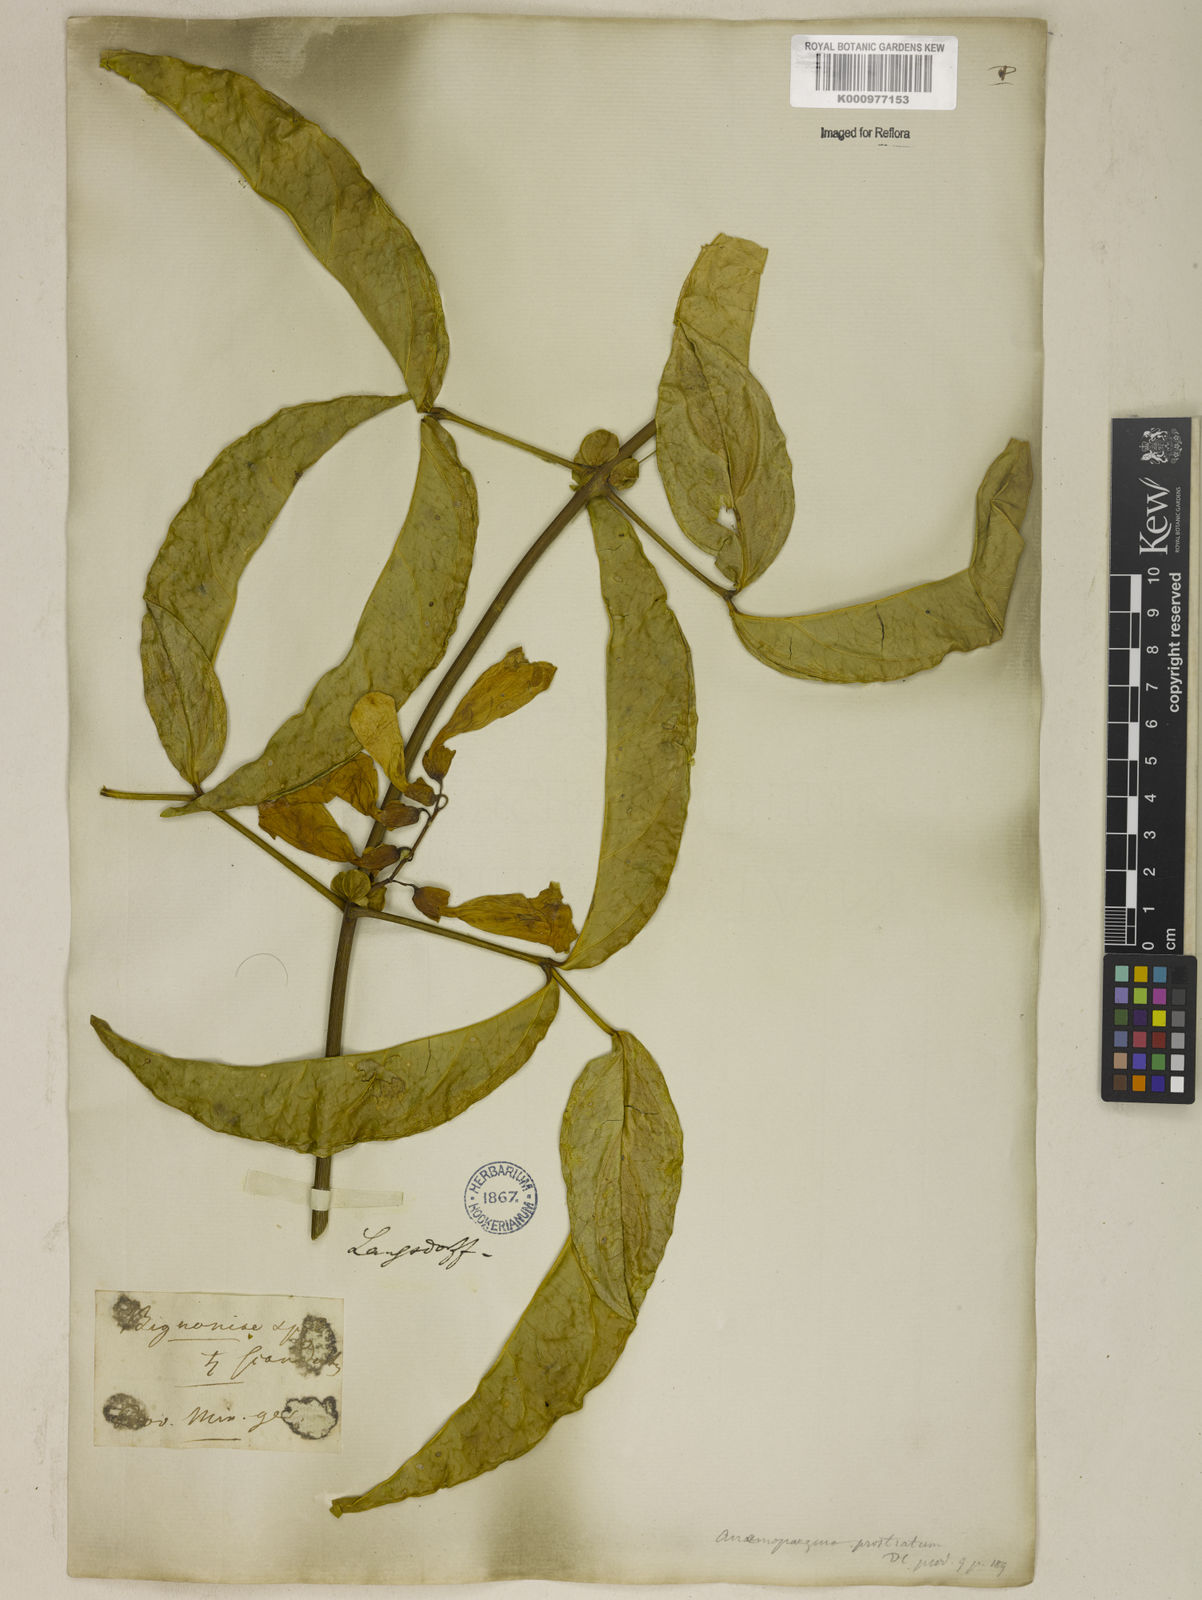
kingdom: Plantae
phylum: Tracheophyta
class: Magnoliopsida
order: Lamiales
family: Bignoniaceae
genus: Anemopaegma
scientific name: Anemopaegma chamberlaynii
